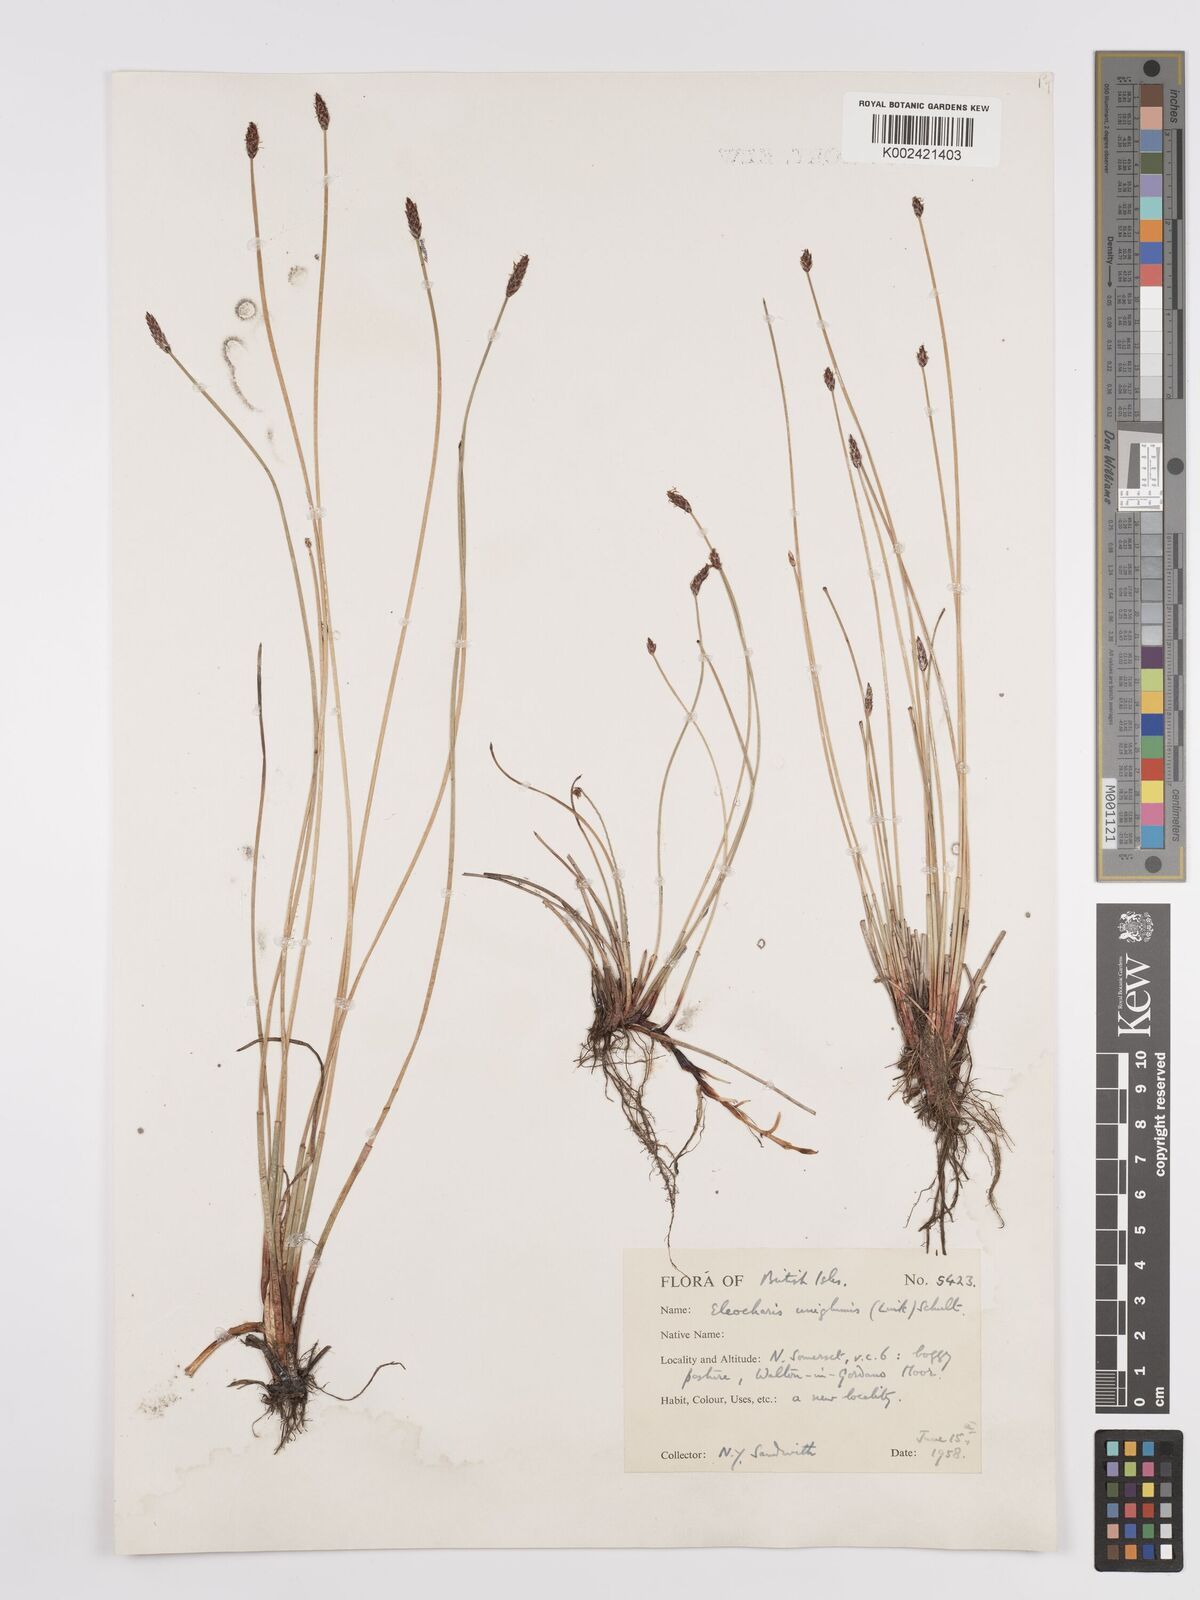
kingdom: Plantae
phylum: Tracheophyta
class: Liliopsida
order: Poales
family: Cyperaceae
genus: Eleocharis
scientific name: Eleocharis uniglumis
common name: Slender spike-rush
